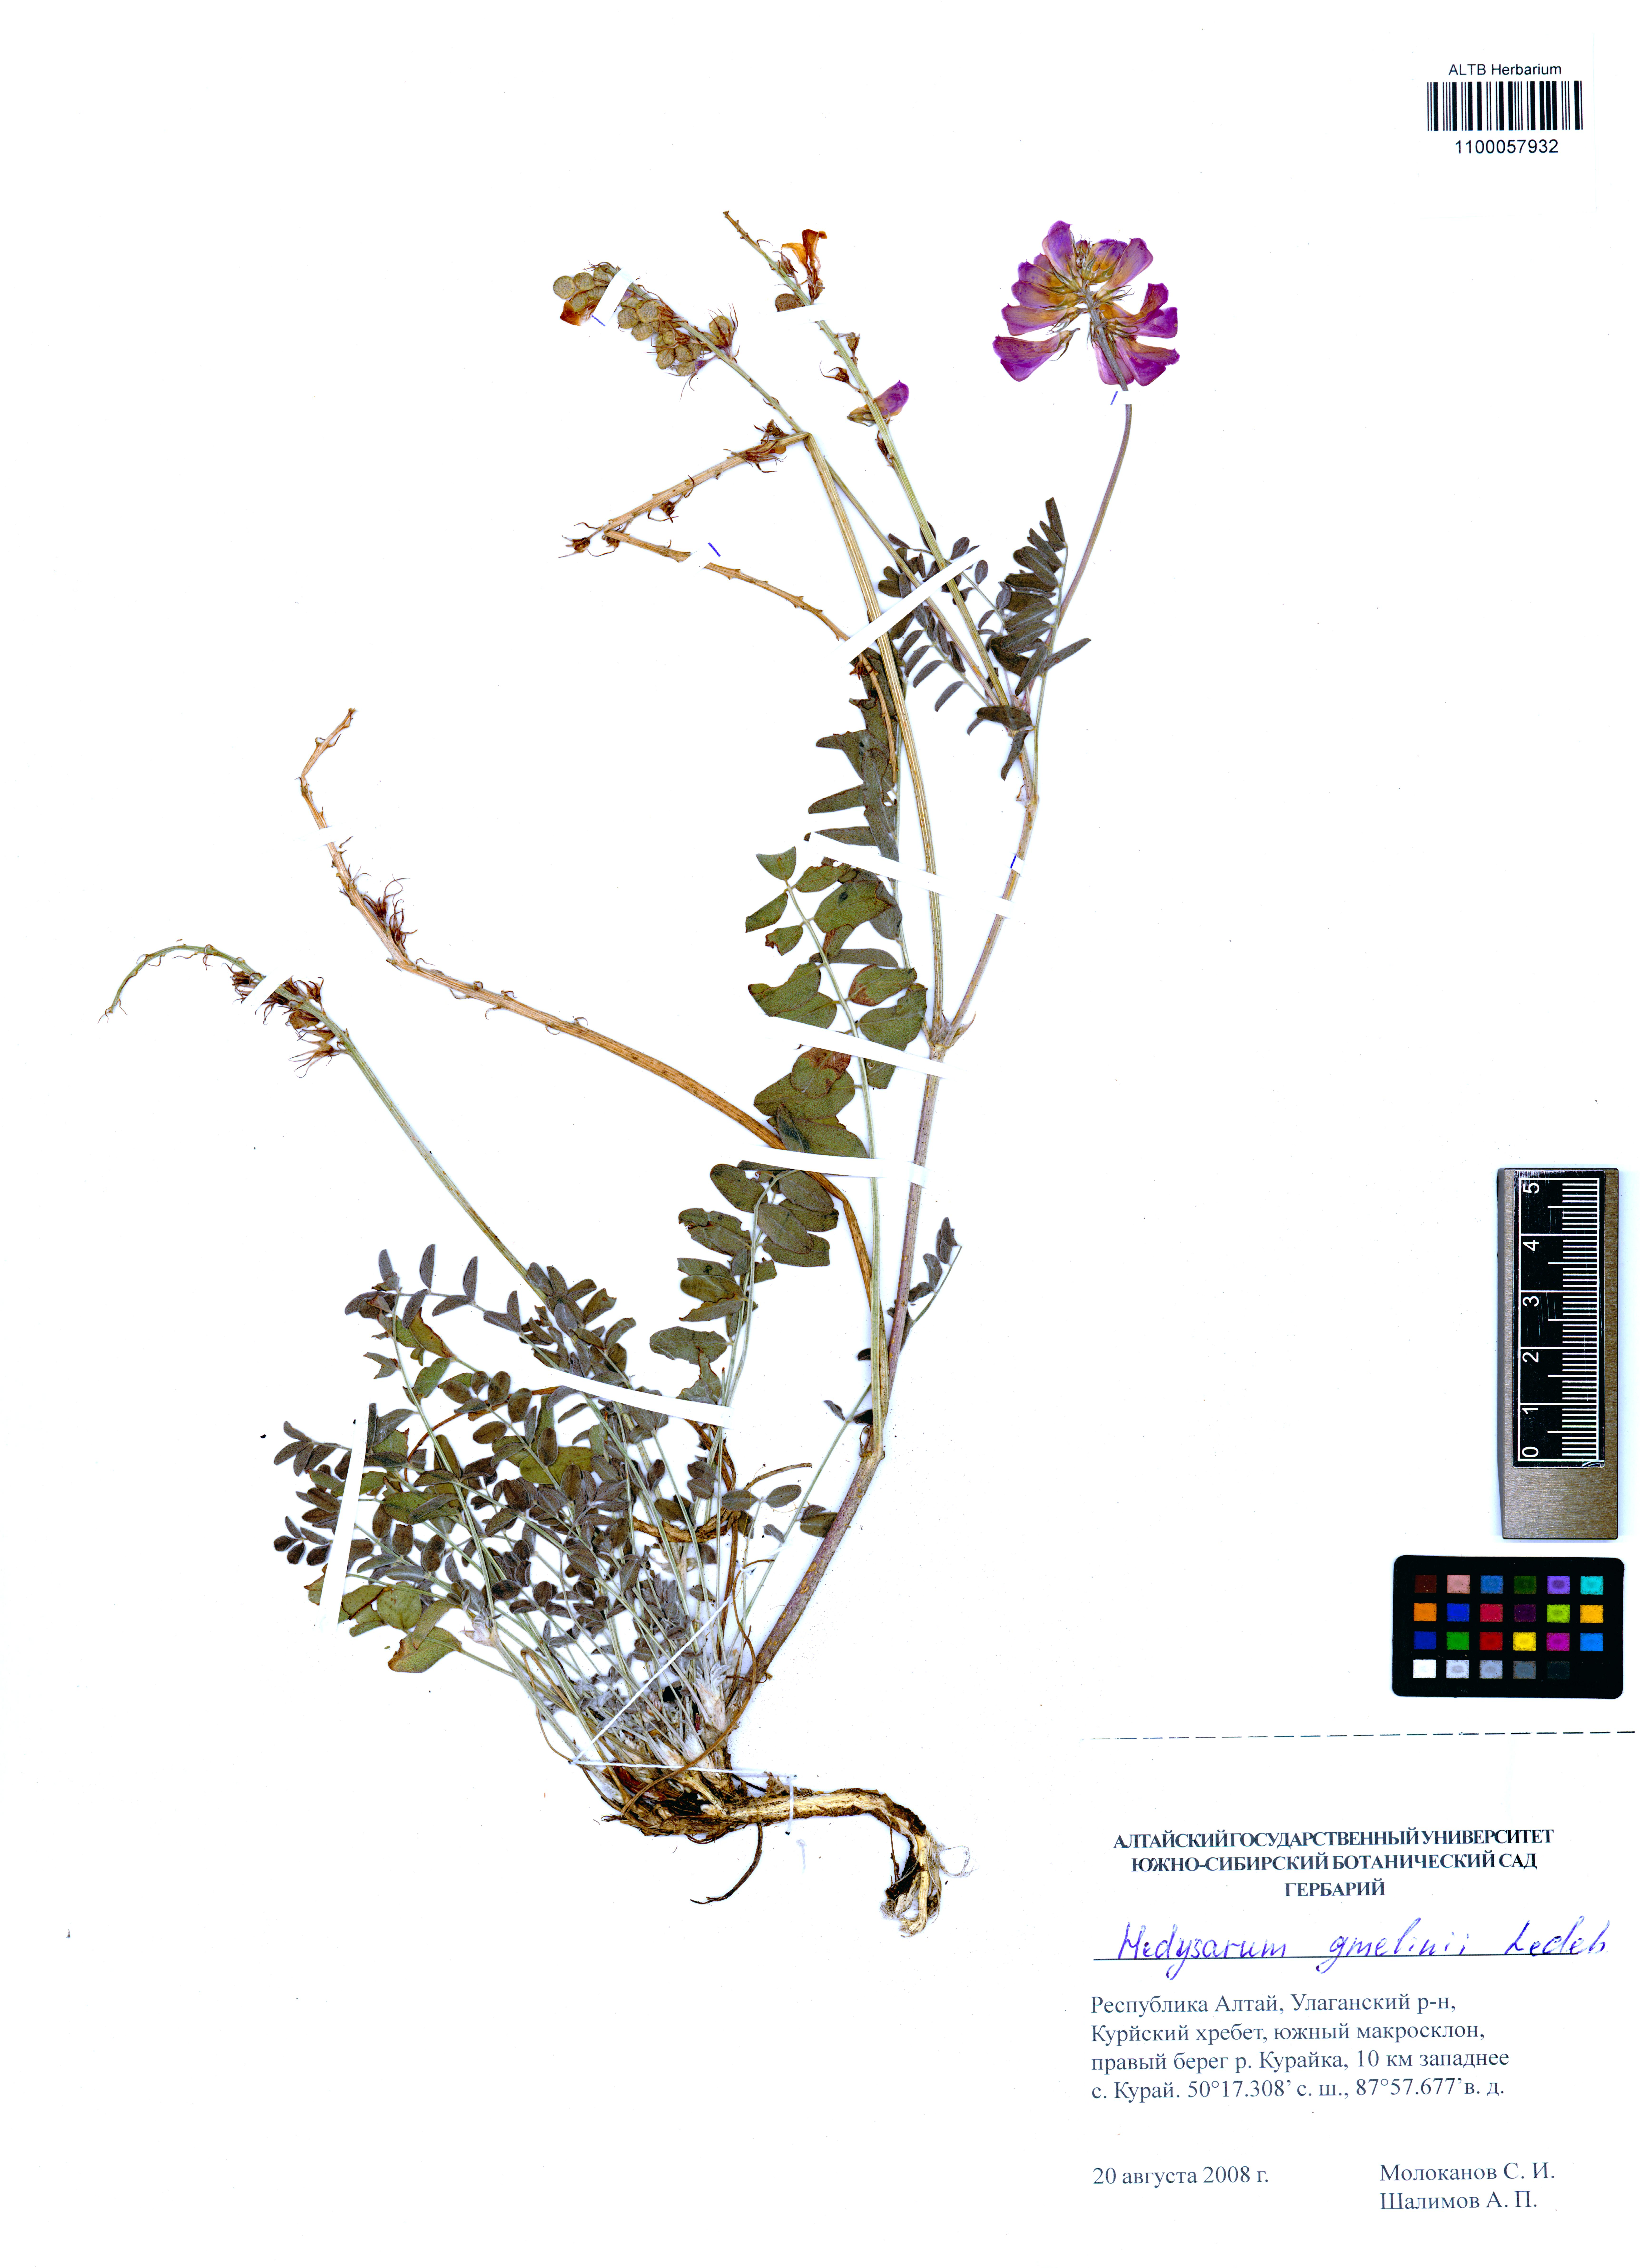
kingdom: Plantae
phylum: Tracheophyta
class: Magnoliopsida
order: Fabales
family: Fabaceae
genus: Hedysarum
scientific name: Hedysarum gmelinii
